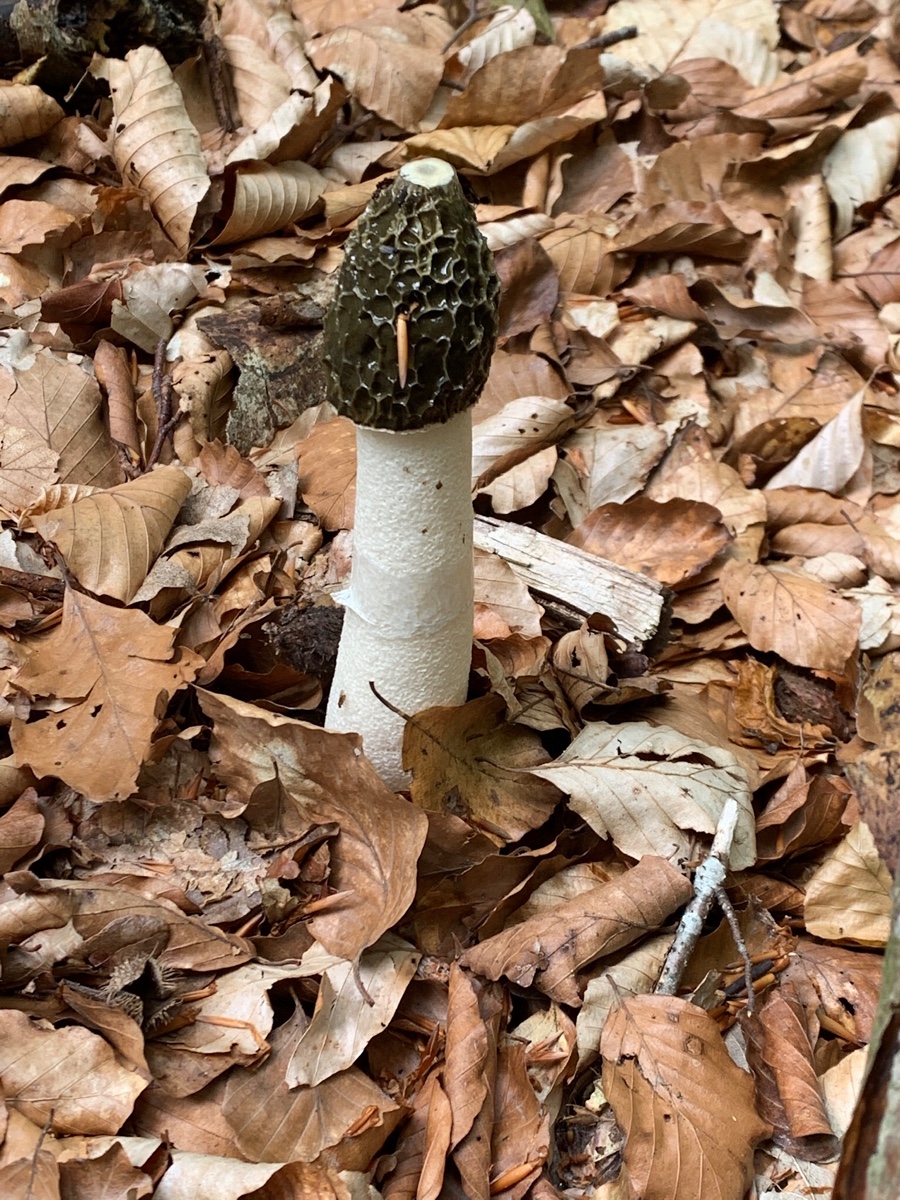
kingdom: Fungi
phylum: Basidiomycota
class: Agaricomycetes
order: Phallales
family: Phallaceae
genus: Phallus
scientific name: Phallus impudicus
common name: almindelig stinksvamp
